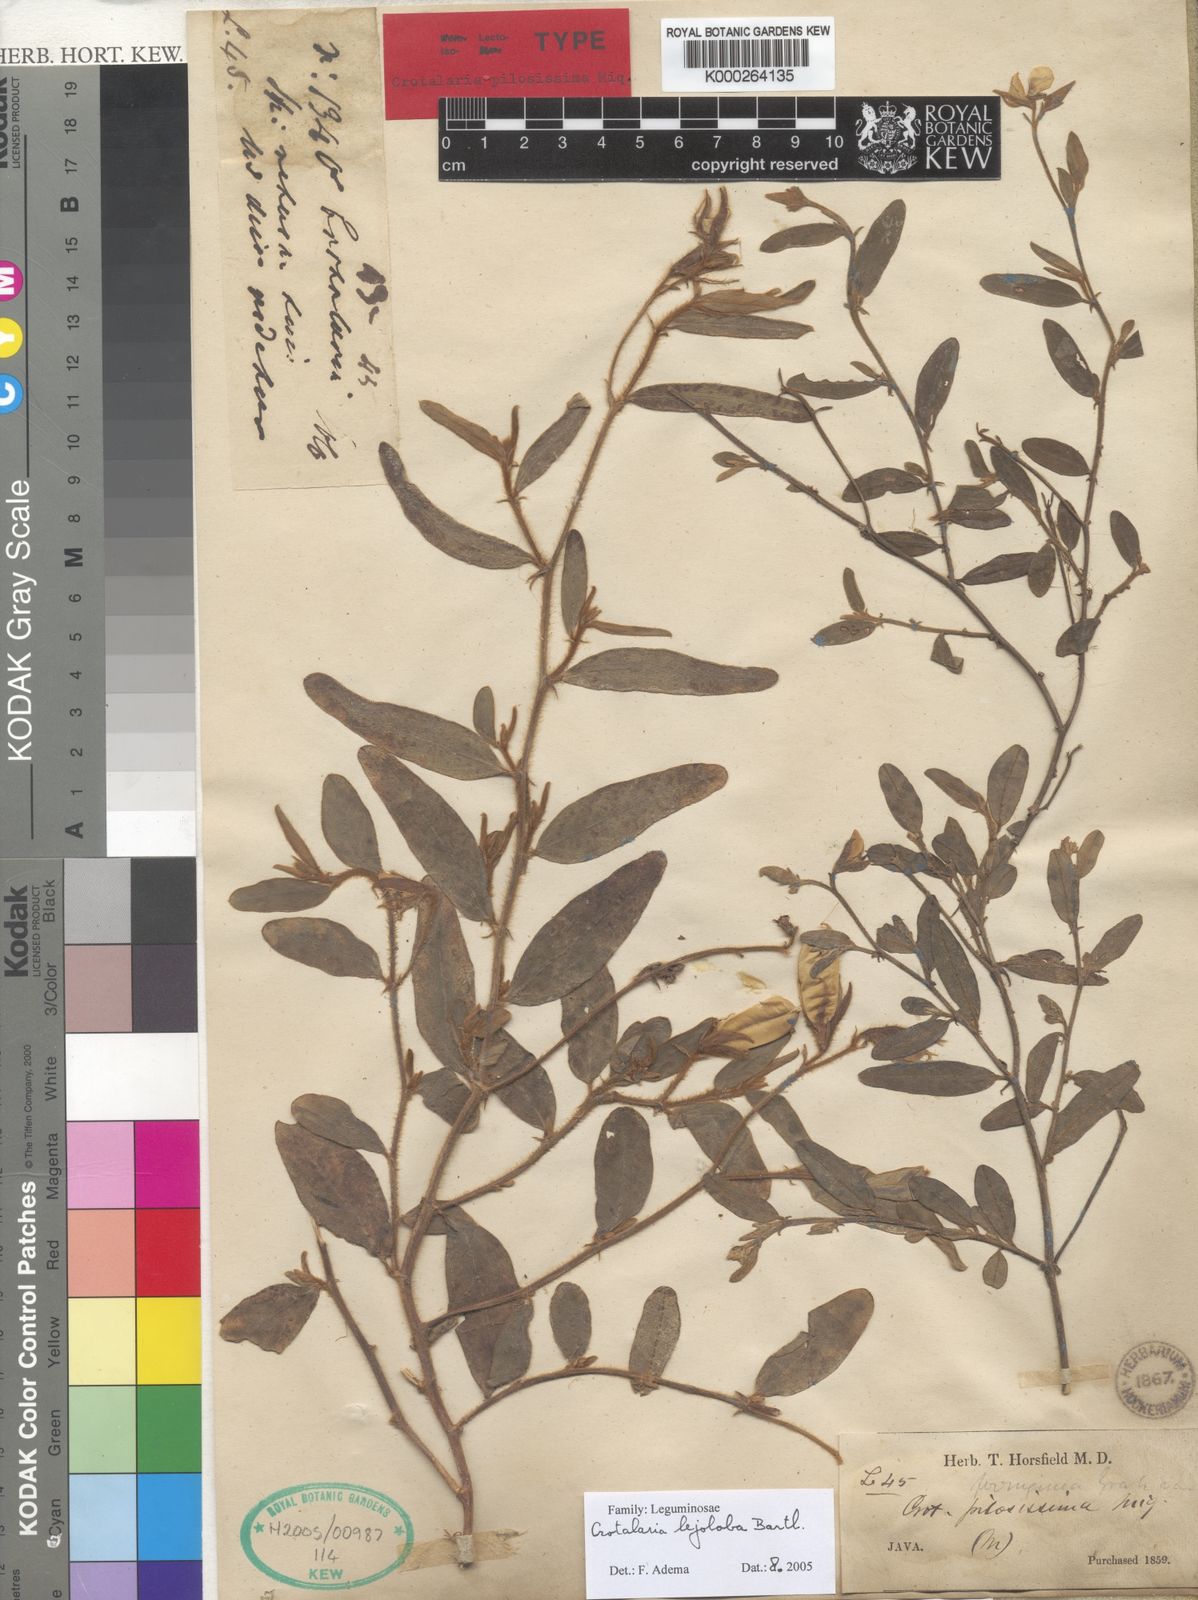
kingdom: Plantae
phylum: Tracheophyta
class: Magnoliopsida
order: Fabales
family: Fabaceae
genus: Crotalaria
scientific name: Crotalaria lejoloba
